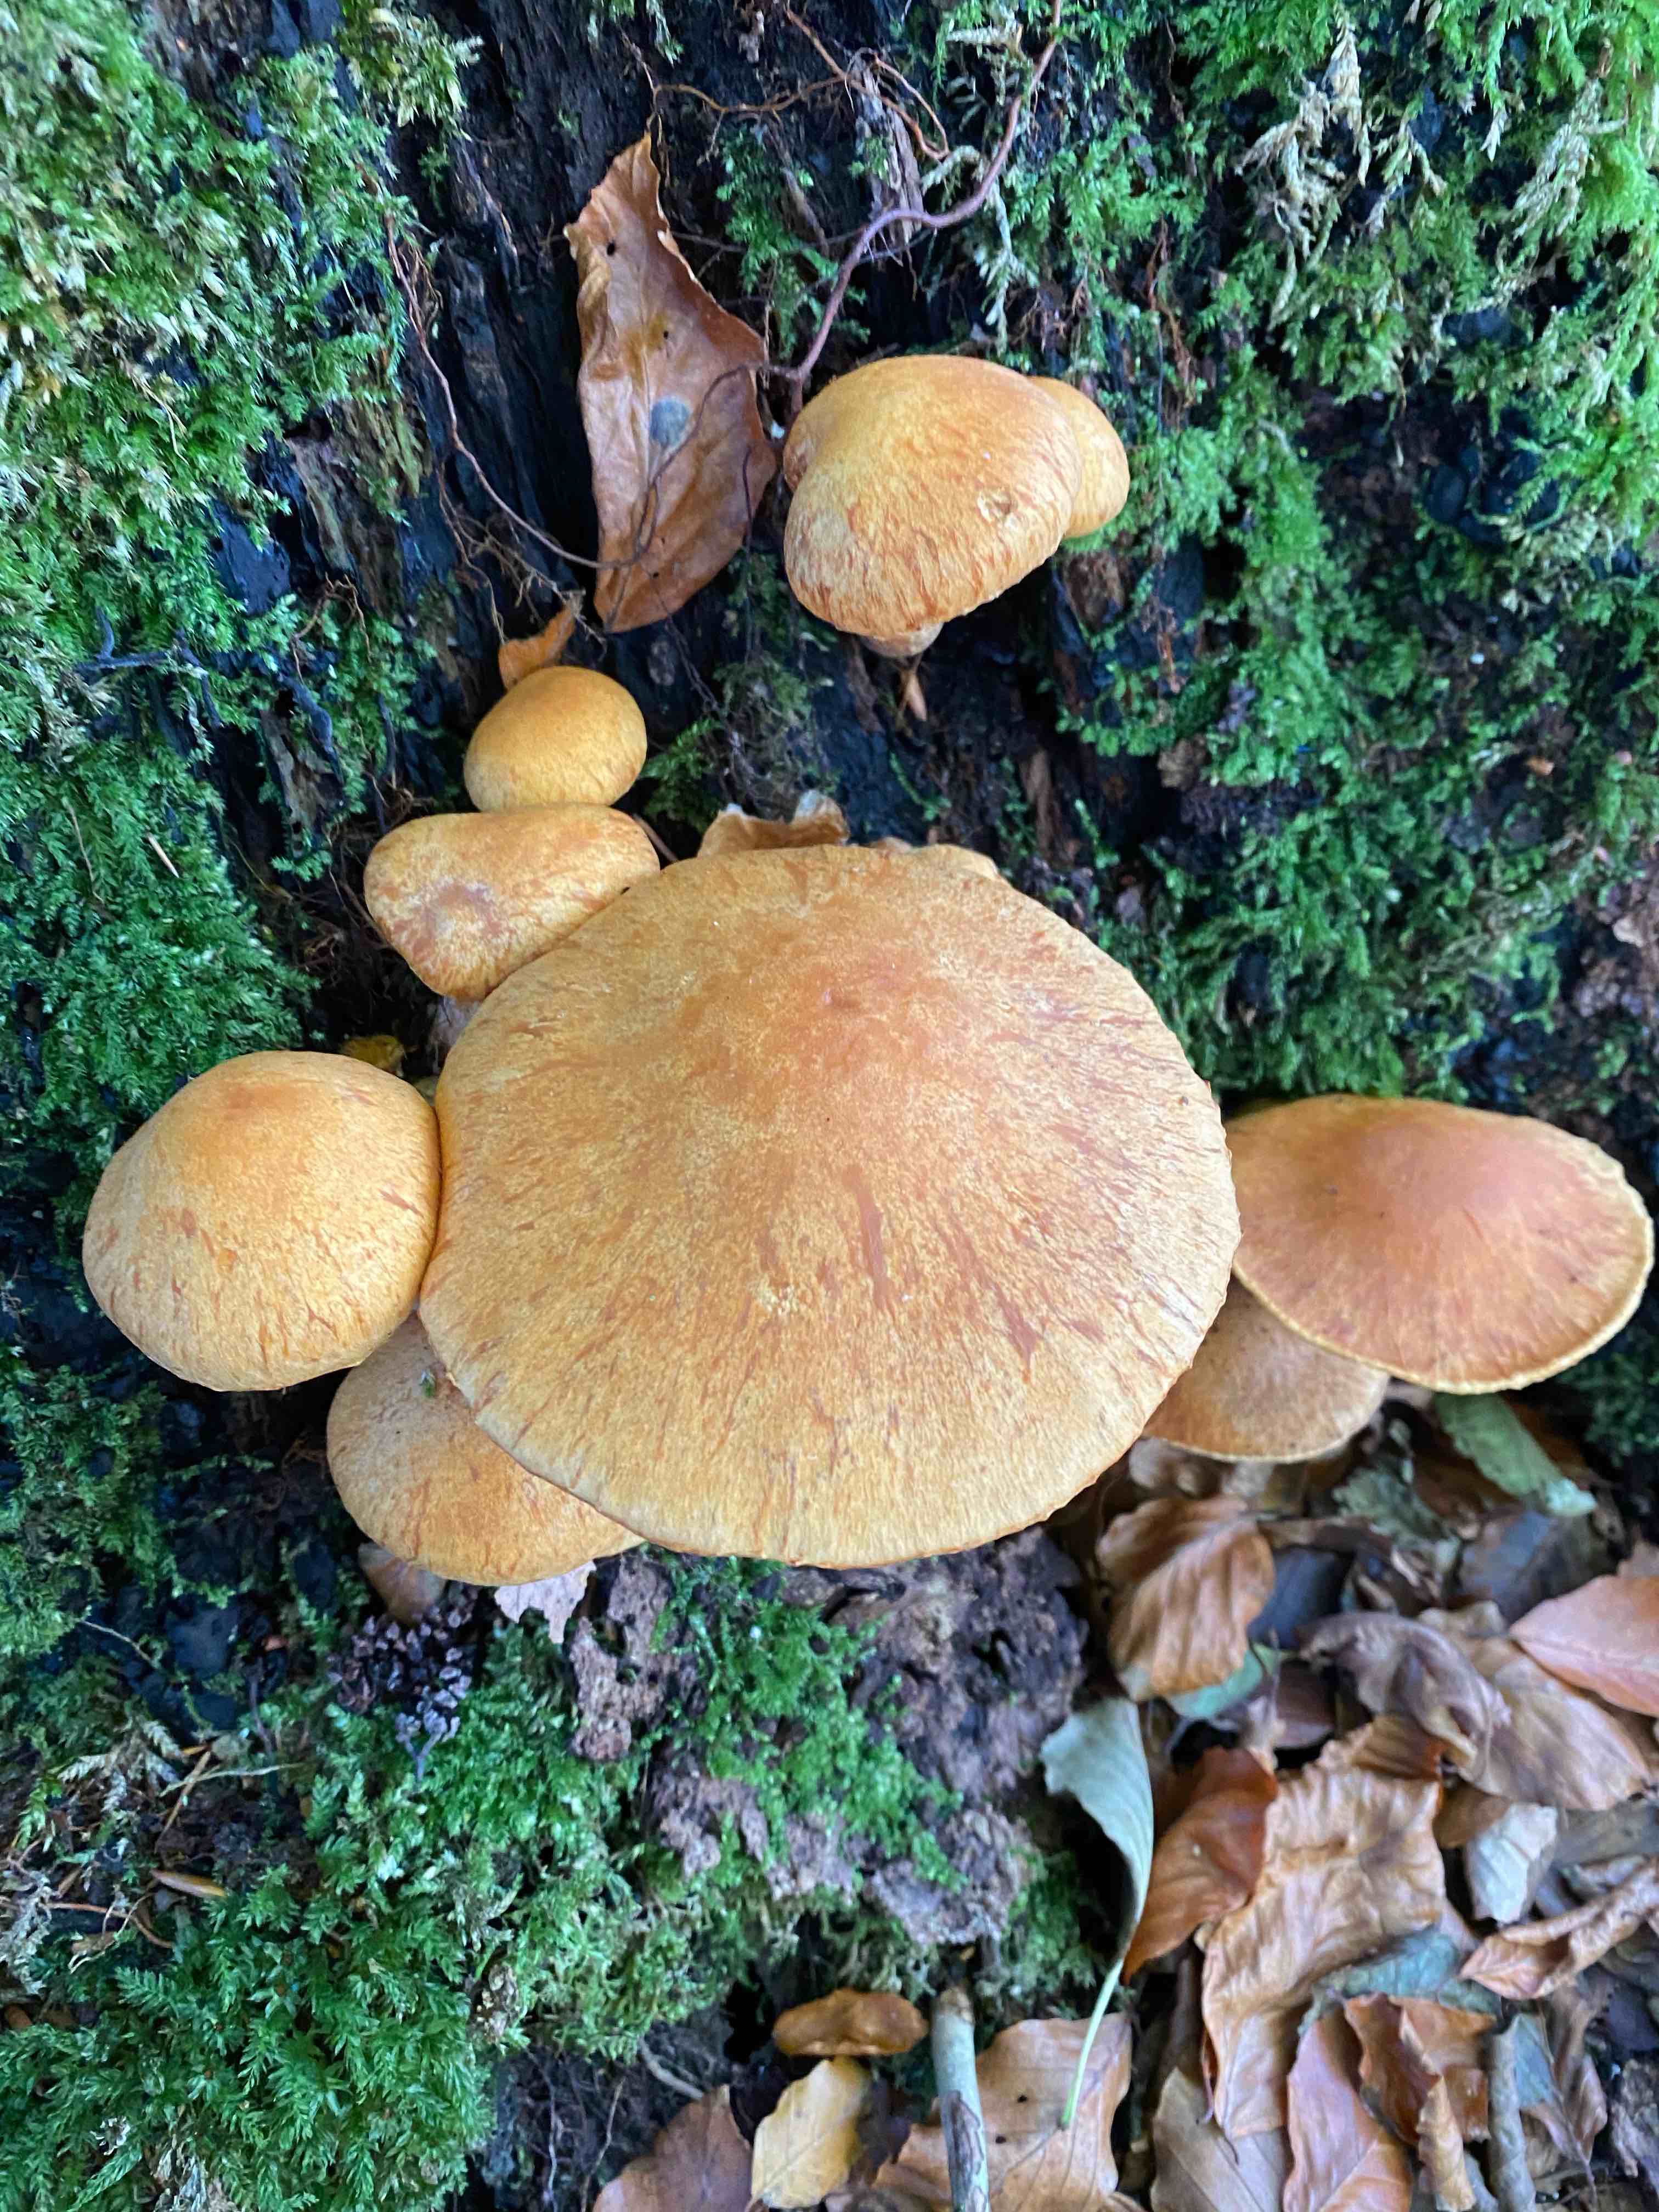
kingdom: Fungi
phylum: Basidiomycota
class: Agaricomycetes
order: Agaricales
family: Hymenogastraceae
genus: Gymnopilus
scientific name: Gymnopilus spectabilis
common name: fibret flammehat
